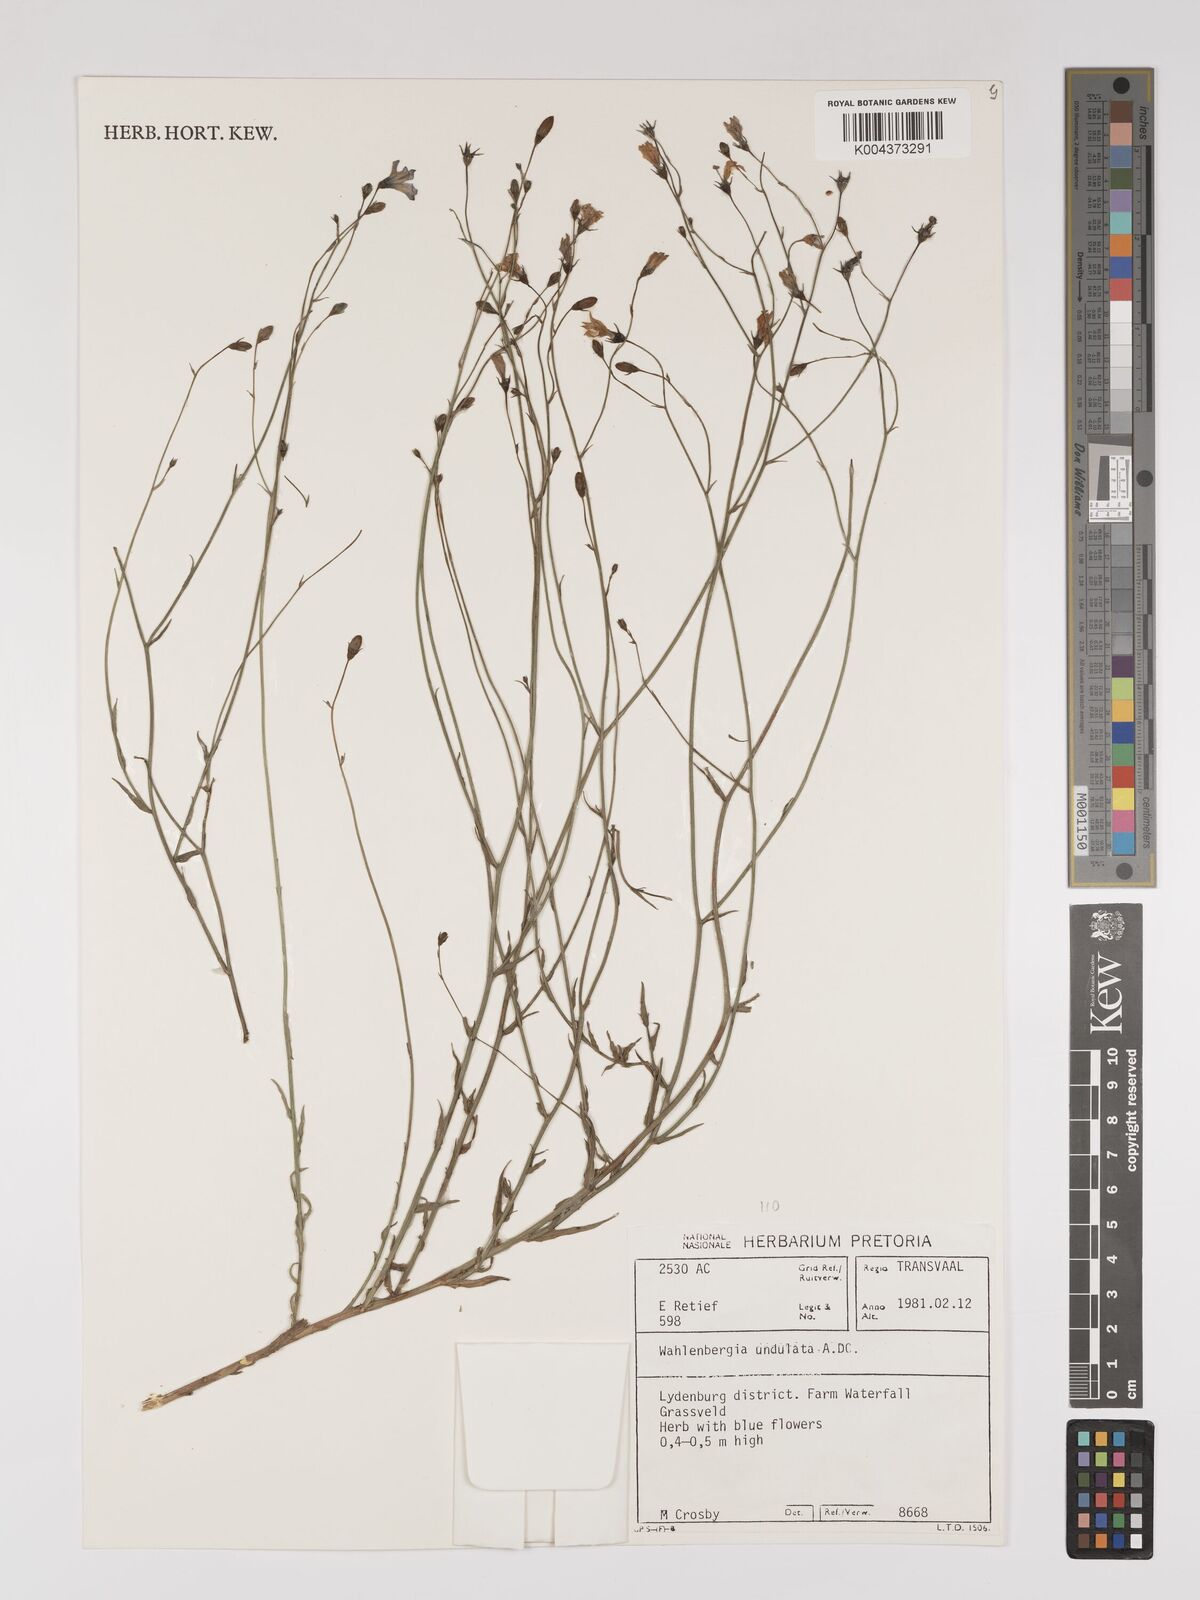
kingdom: Plantae
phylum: Tracheophyta
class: Magnoliopsida
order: Asterales
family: Campanulaceae
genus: Wahlenbergia
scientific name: Wahlenbergia undulata
